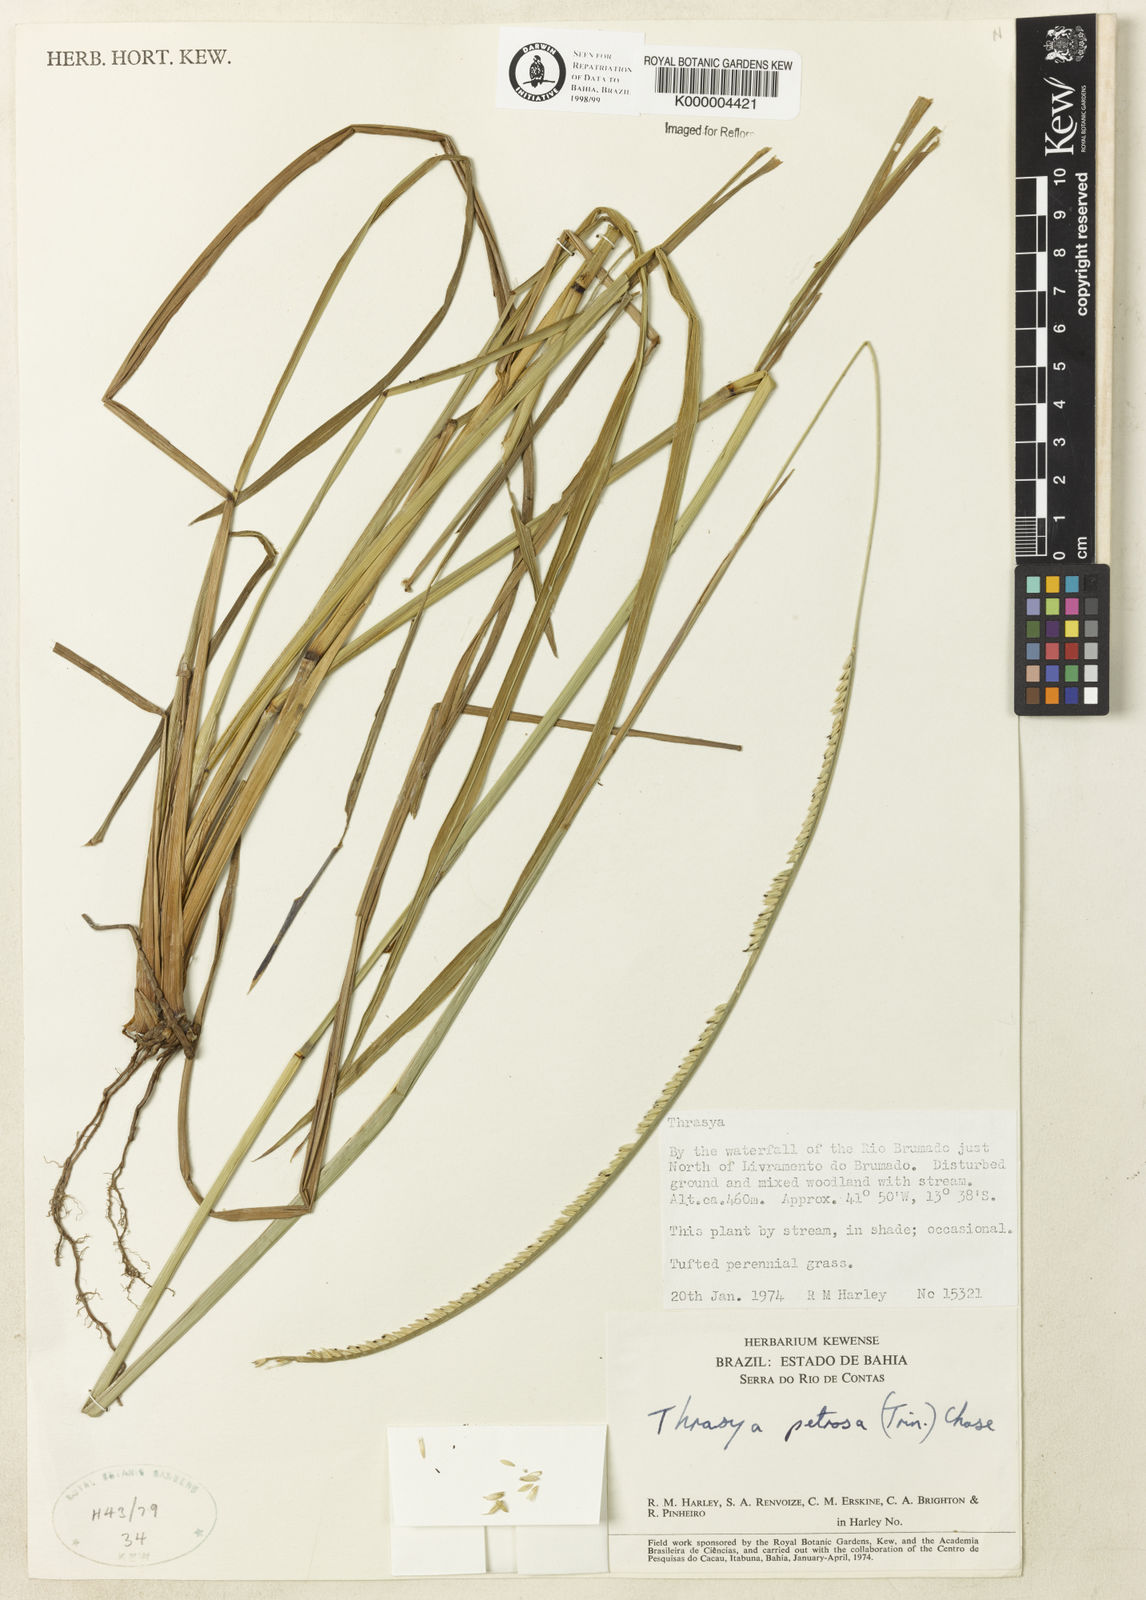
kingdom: Plantae
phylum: Tracheophyta
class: Liliopsida
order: Poales
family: Poaceae
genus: Paspalum
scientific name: Paspalum foliiforme
